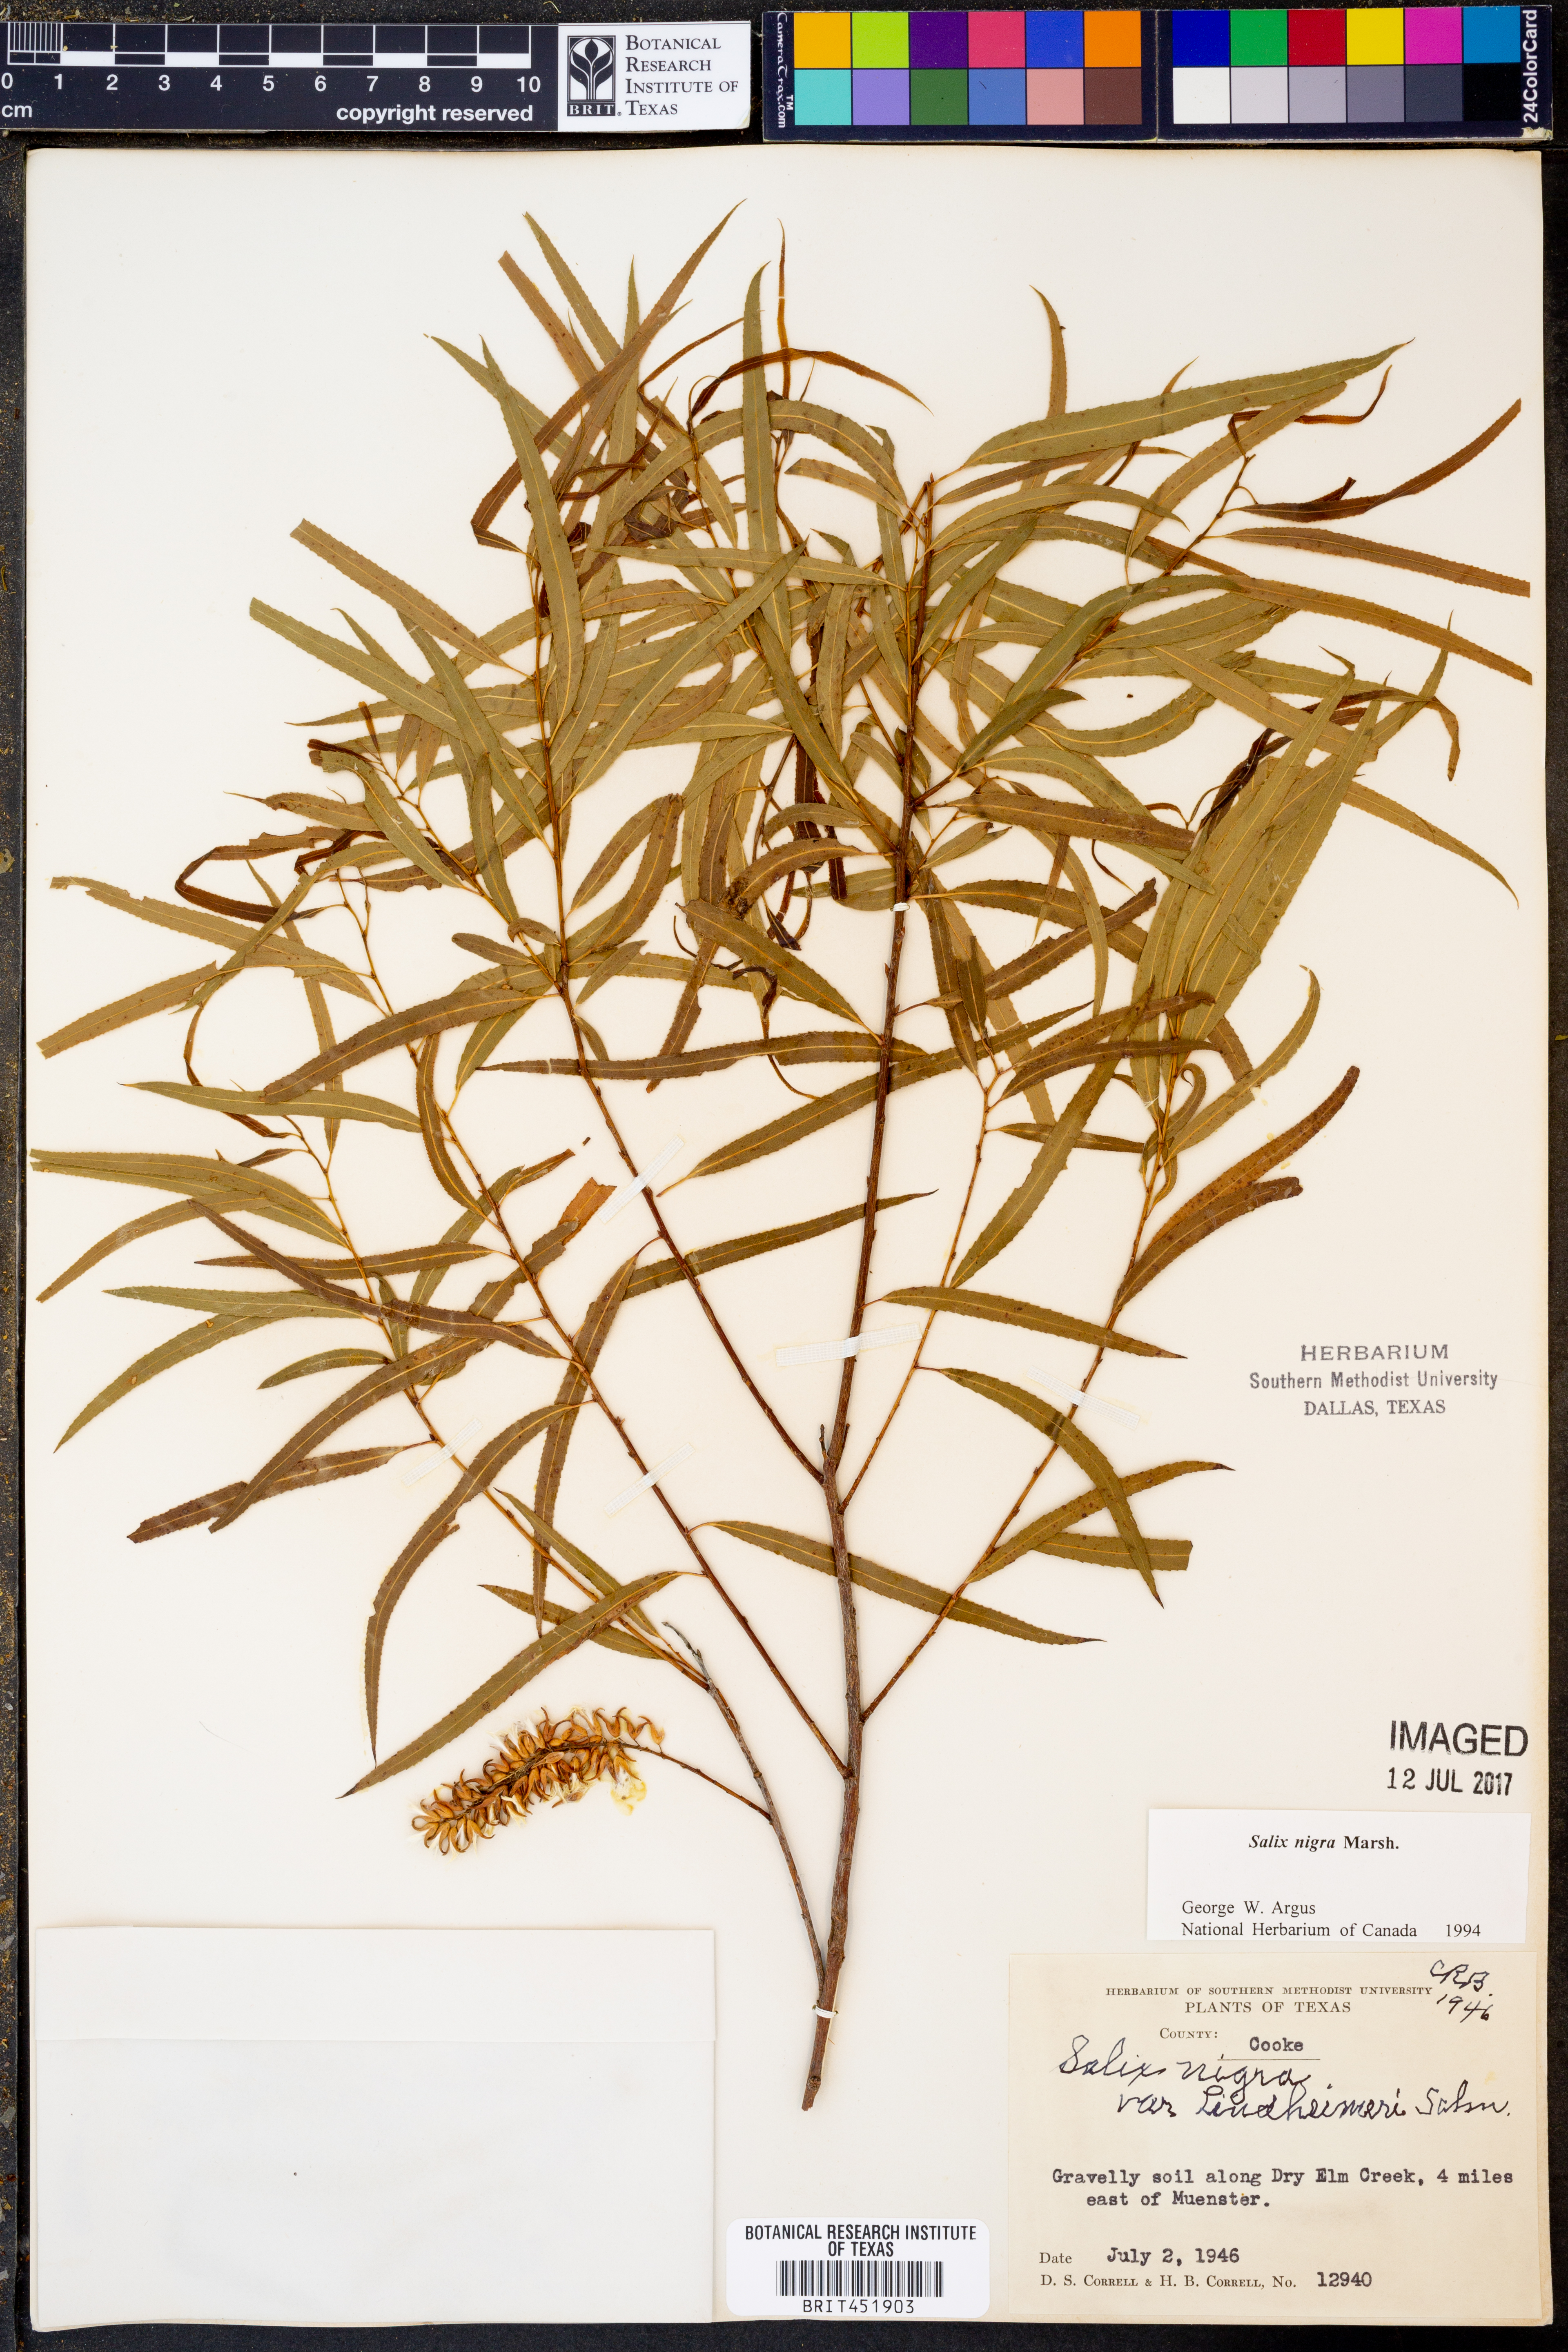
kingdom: Plantae
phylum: Tracheophyta
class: Magnoliopsida
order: Malpighiales
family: Salicaceae
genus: Salix
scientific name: Salix nigra
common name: Black willow
